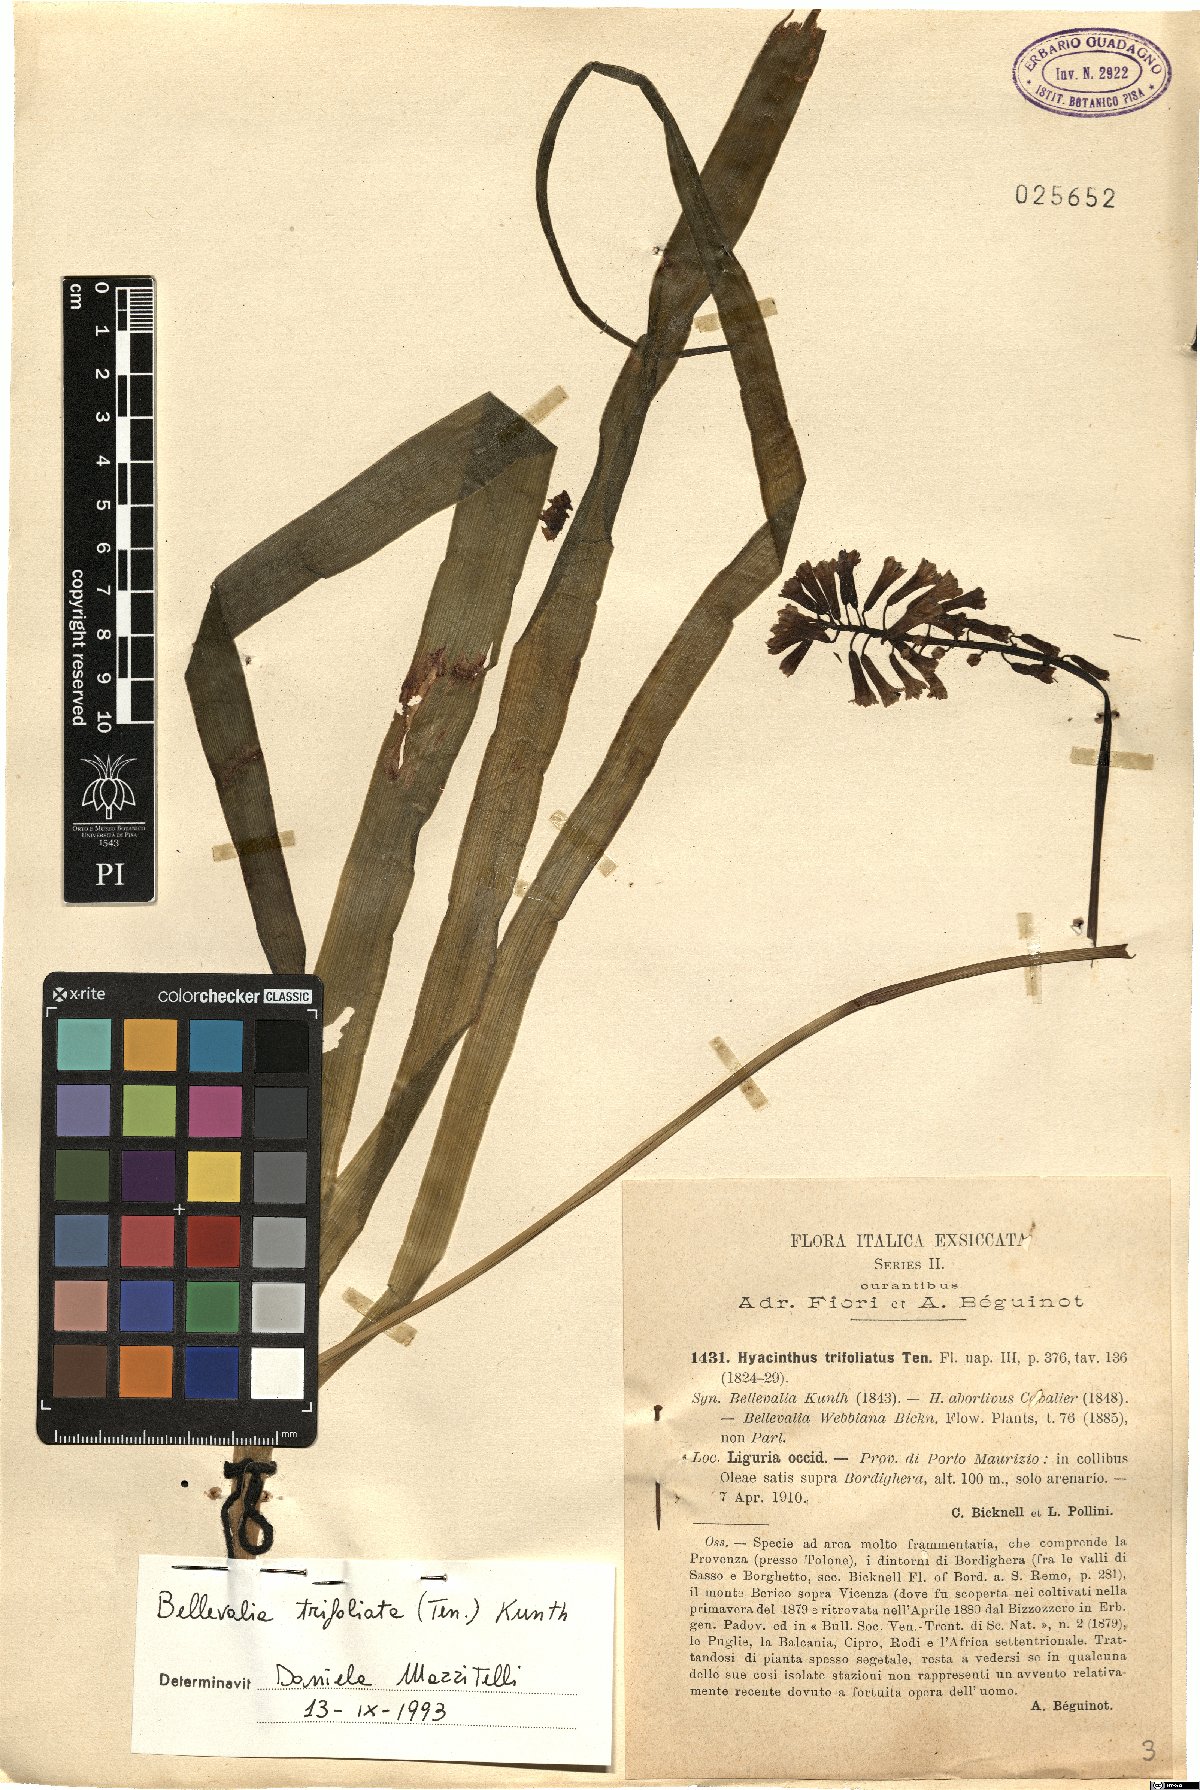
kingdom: Plantae
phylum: Tracheophyta
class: Liliopsida
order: Asparagales
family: Asparagaceae
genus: Bellevalia
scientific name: Bellevalia trifoliata
